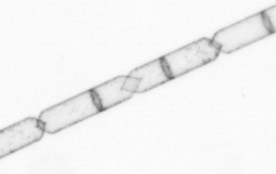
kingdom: Chromista
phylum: Ochrophyta
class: Bacillariophyceae
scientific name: Bacillariophyceae
